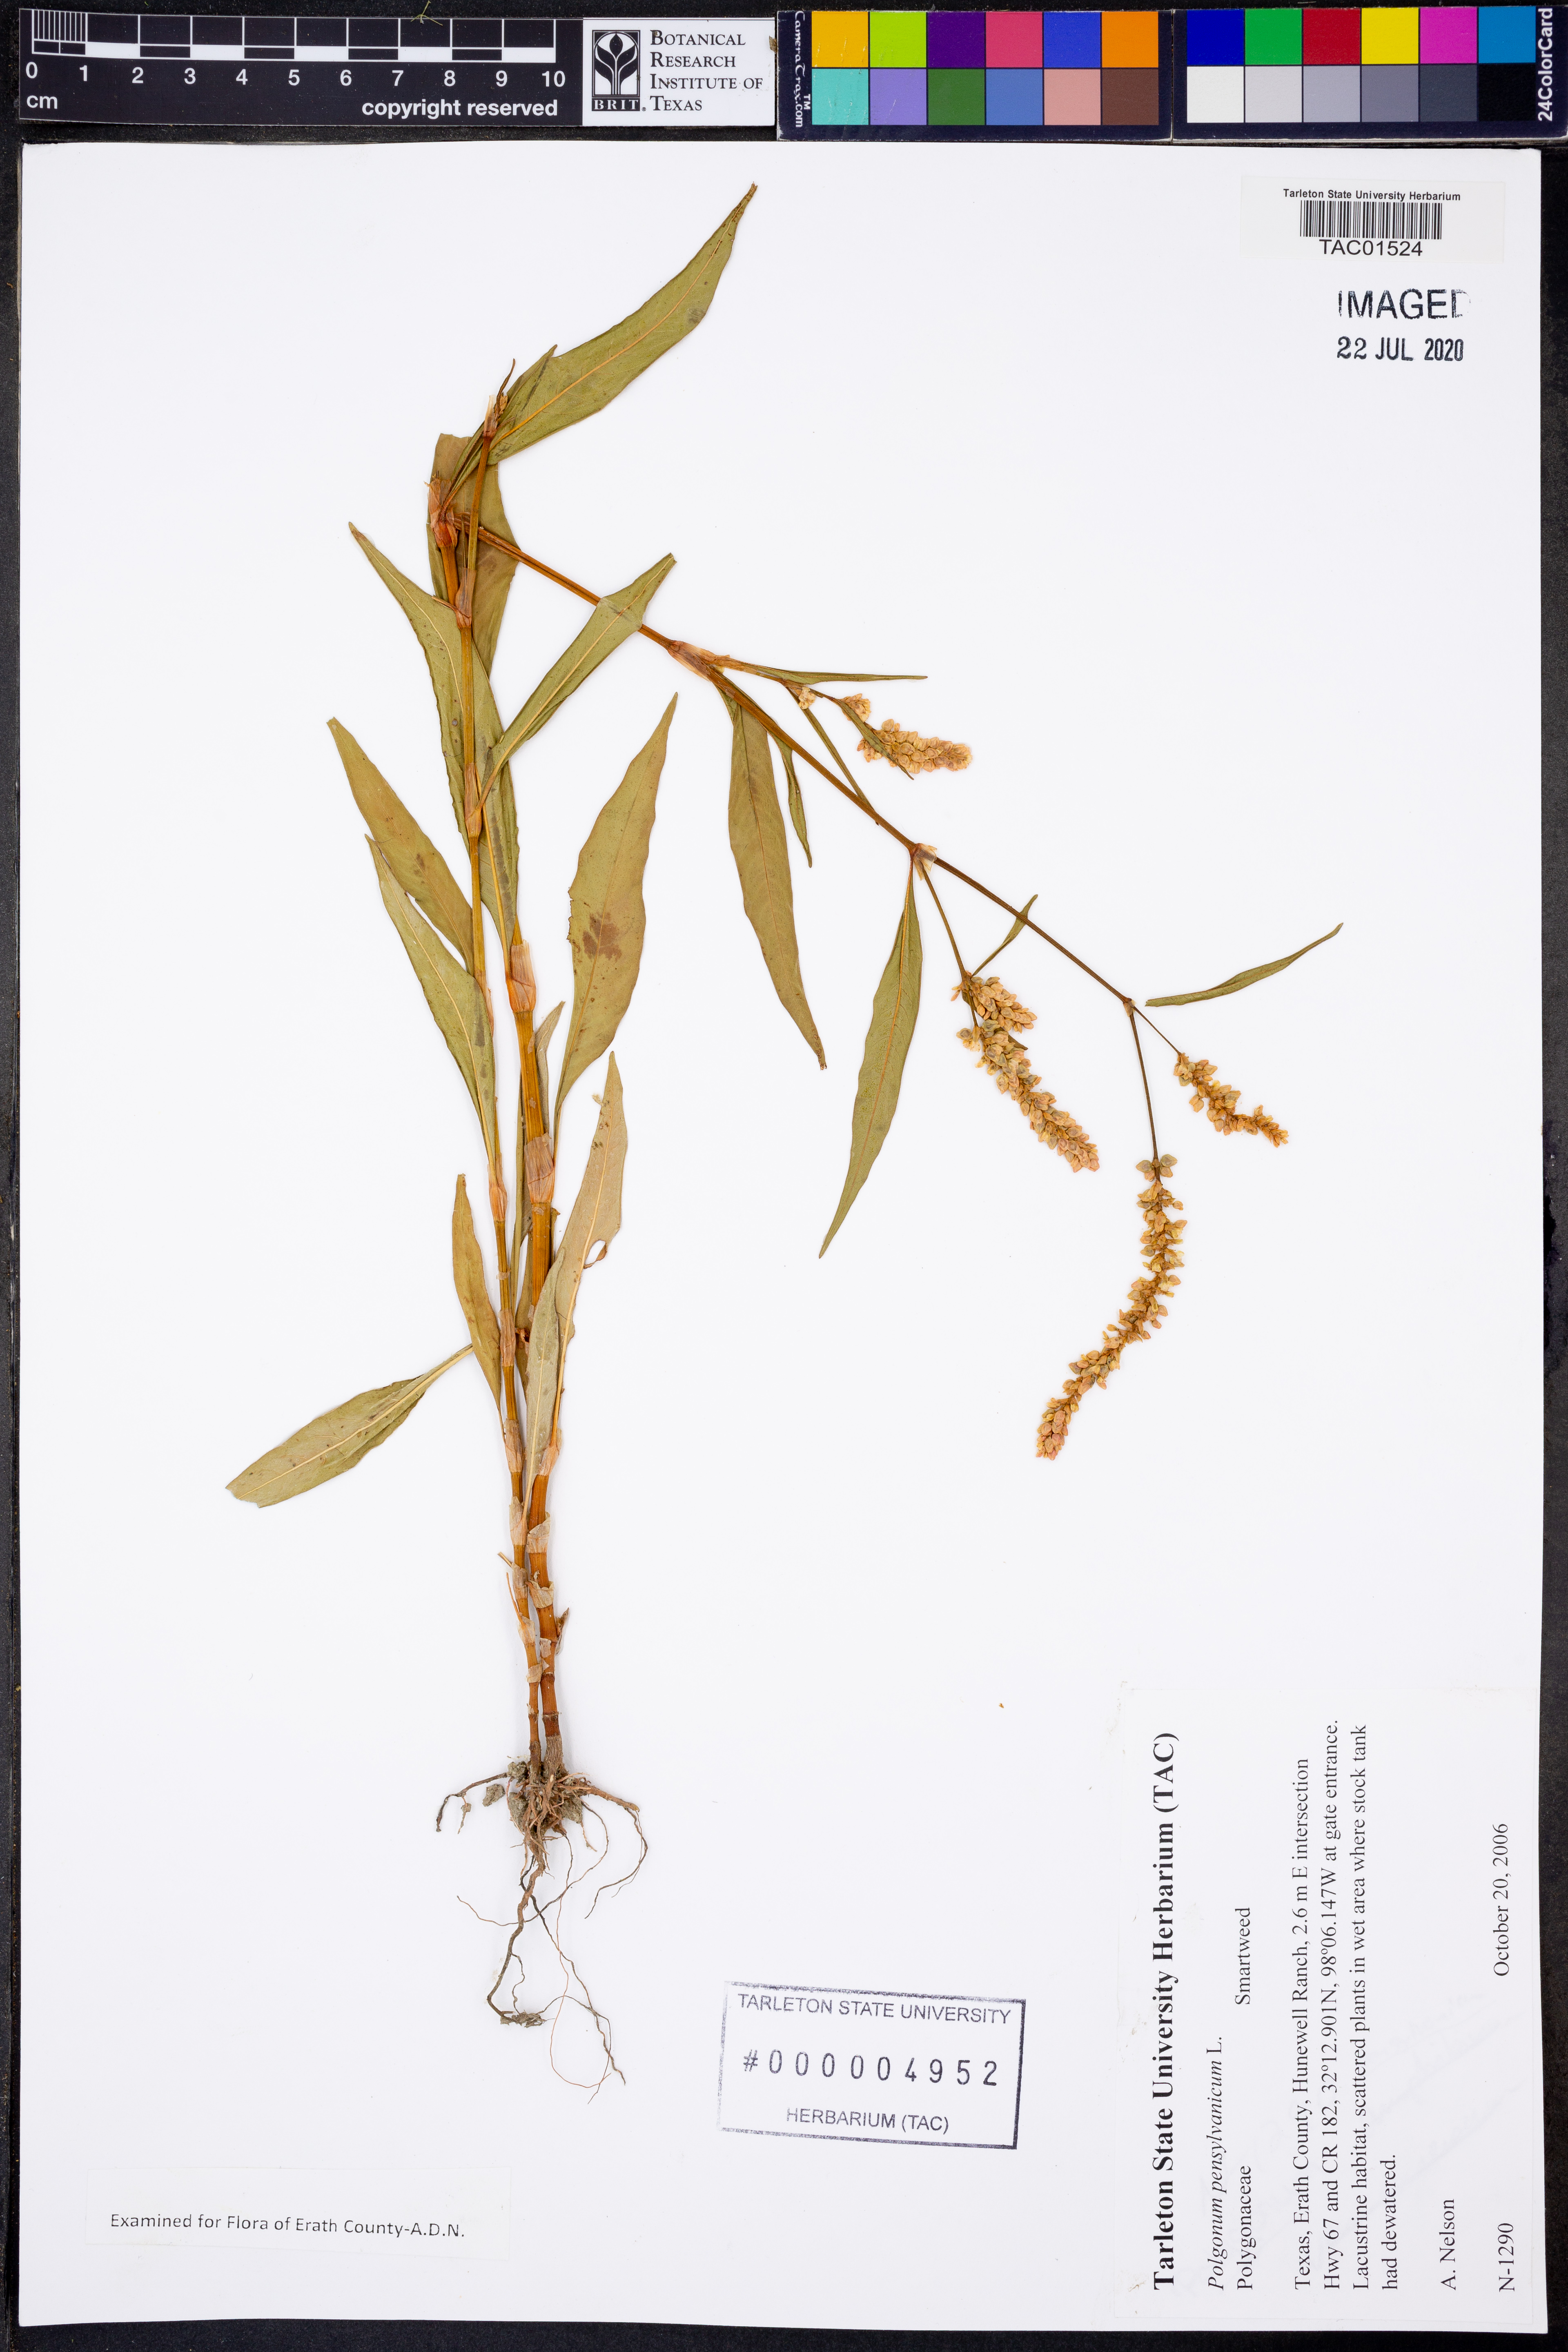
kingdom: Plantae
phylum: Tracheophyta
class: Magnoliopsida
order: Caryophyllales
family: Polygonaceae
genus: Persicaria
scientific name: Persicaria pensylvanica
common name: Pinkweed
